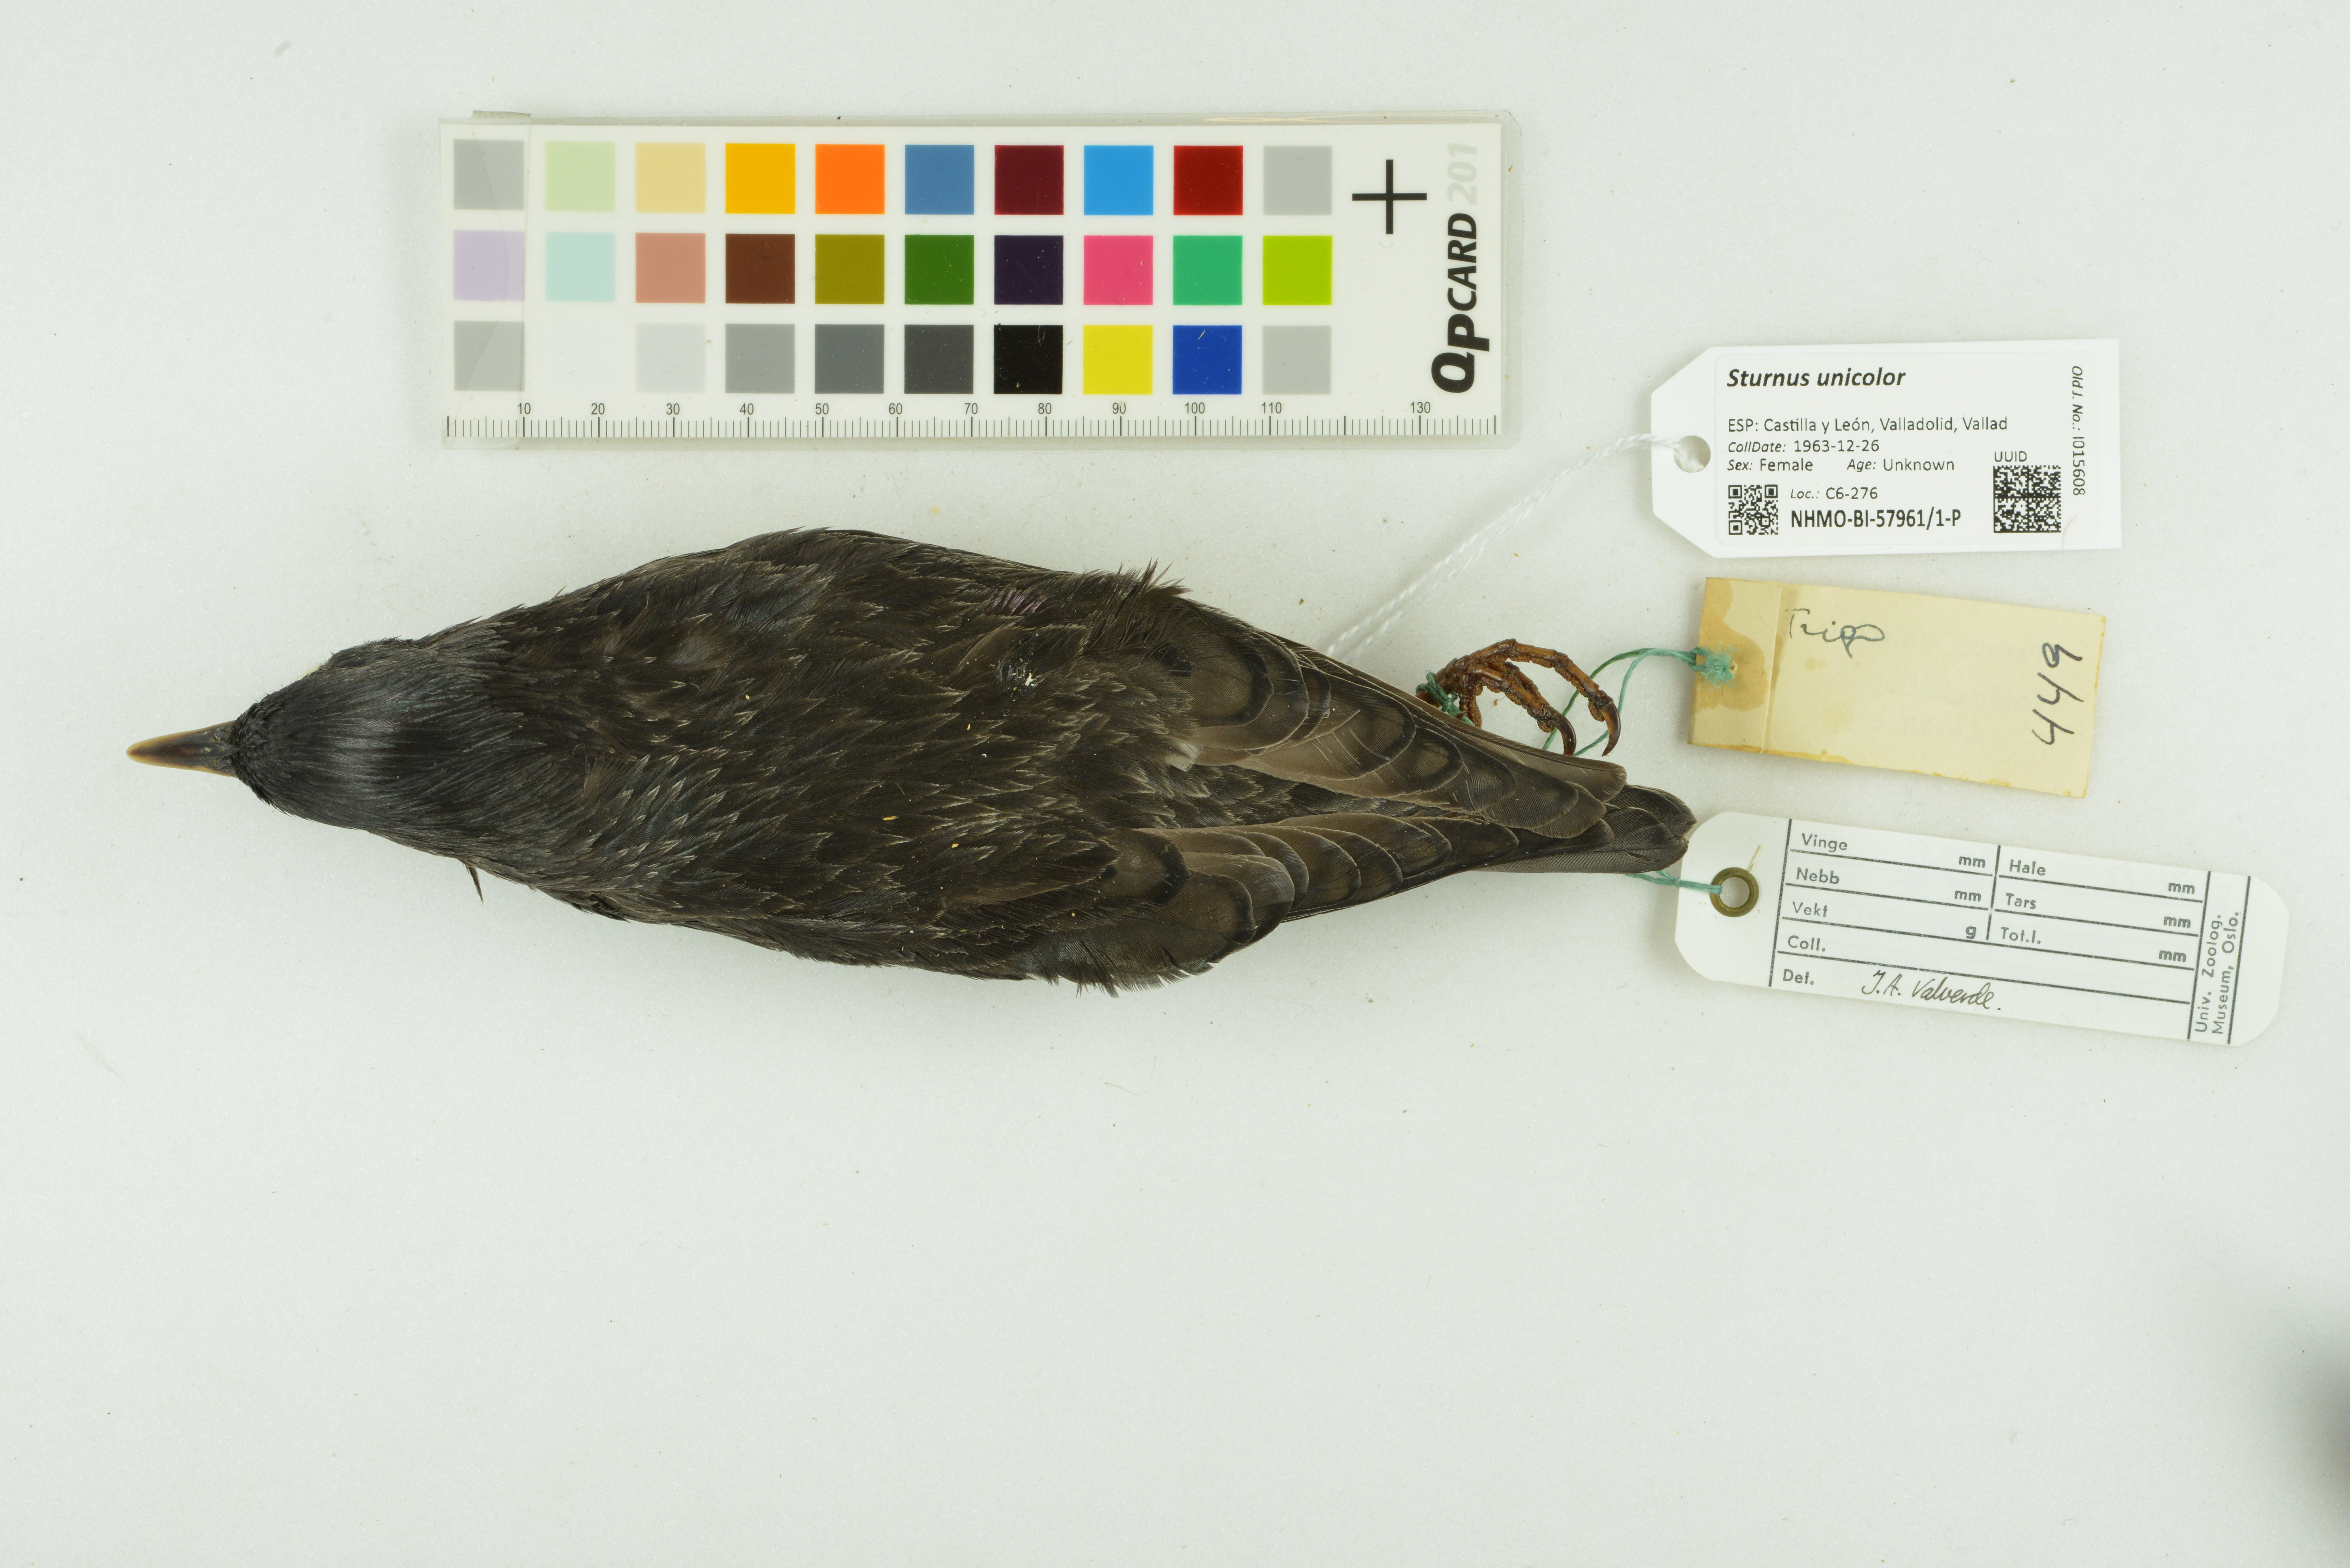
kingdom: Animalia
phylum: Chordata
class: Aves
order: Passeriformes
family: Sturnidae
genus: Sturnus
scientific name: Sturnus unicolor
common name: Spotless starling
